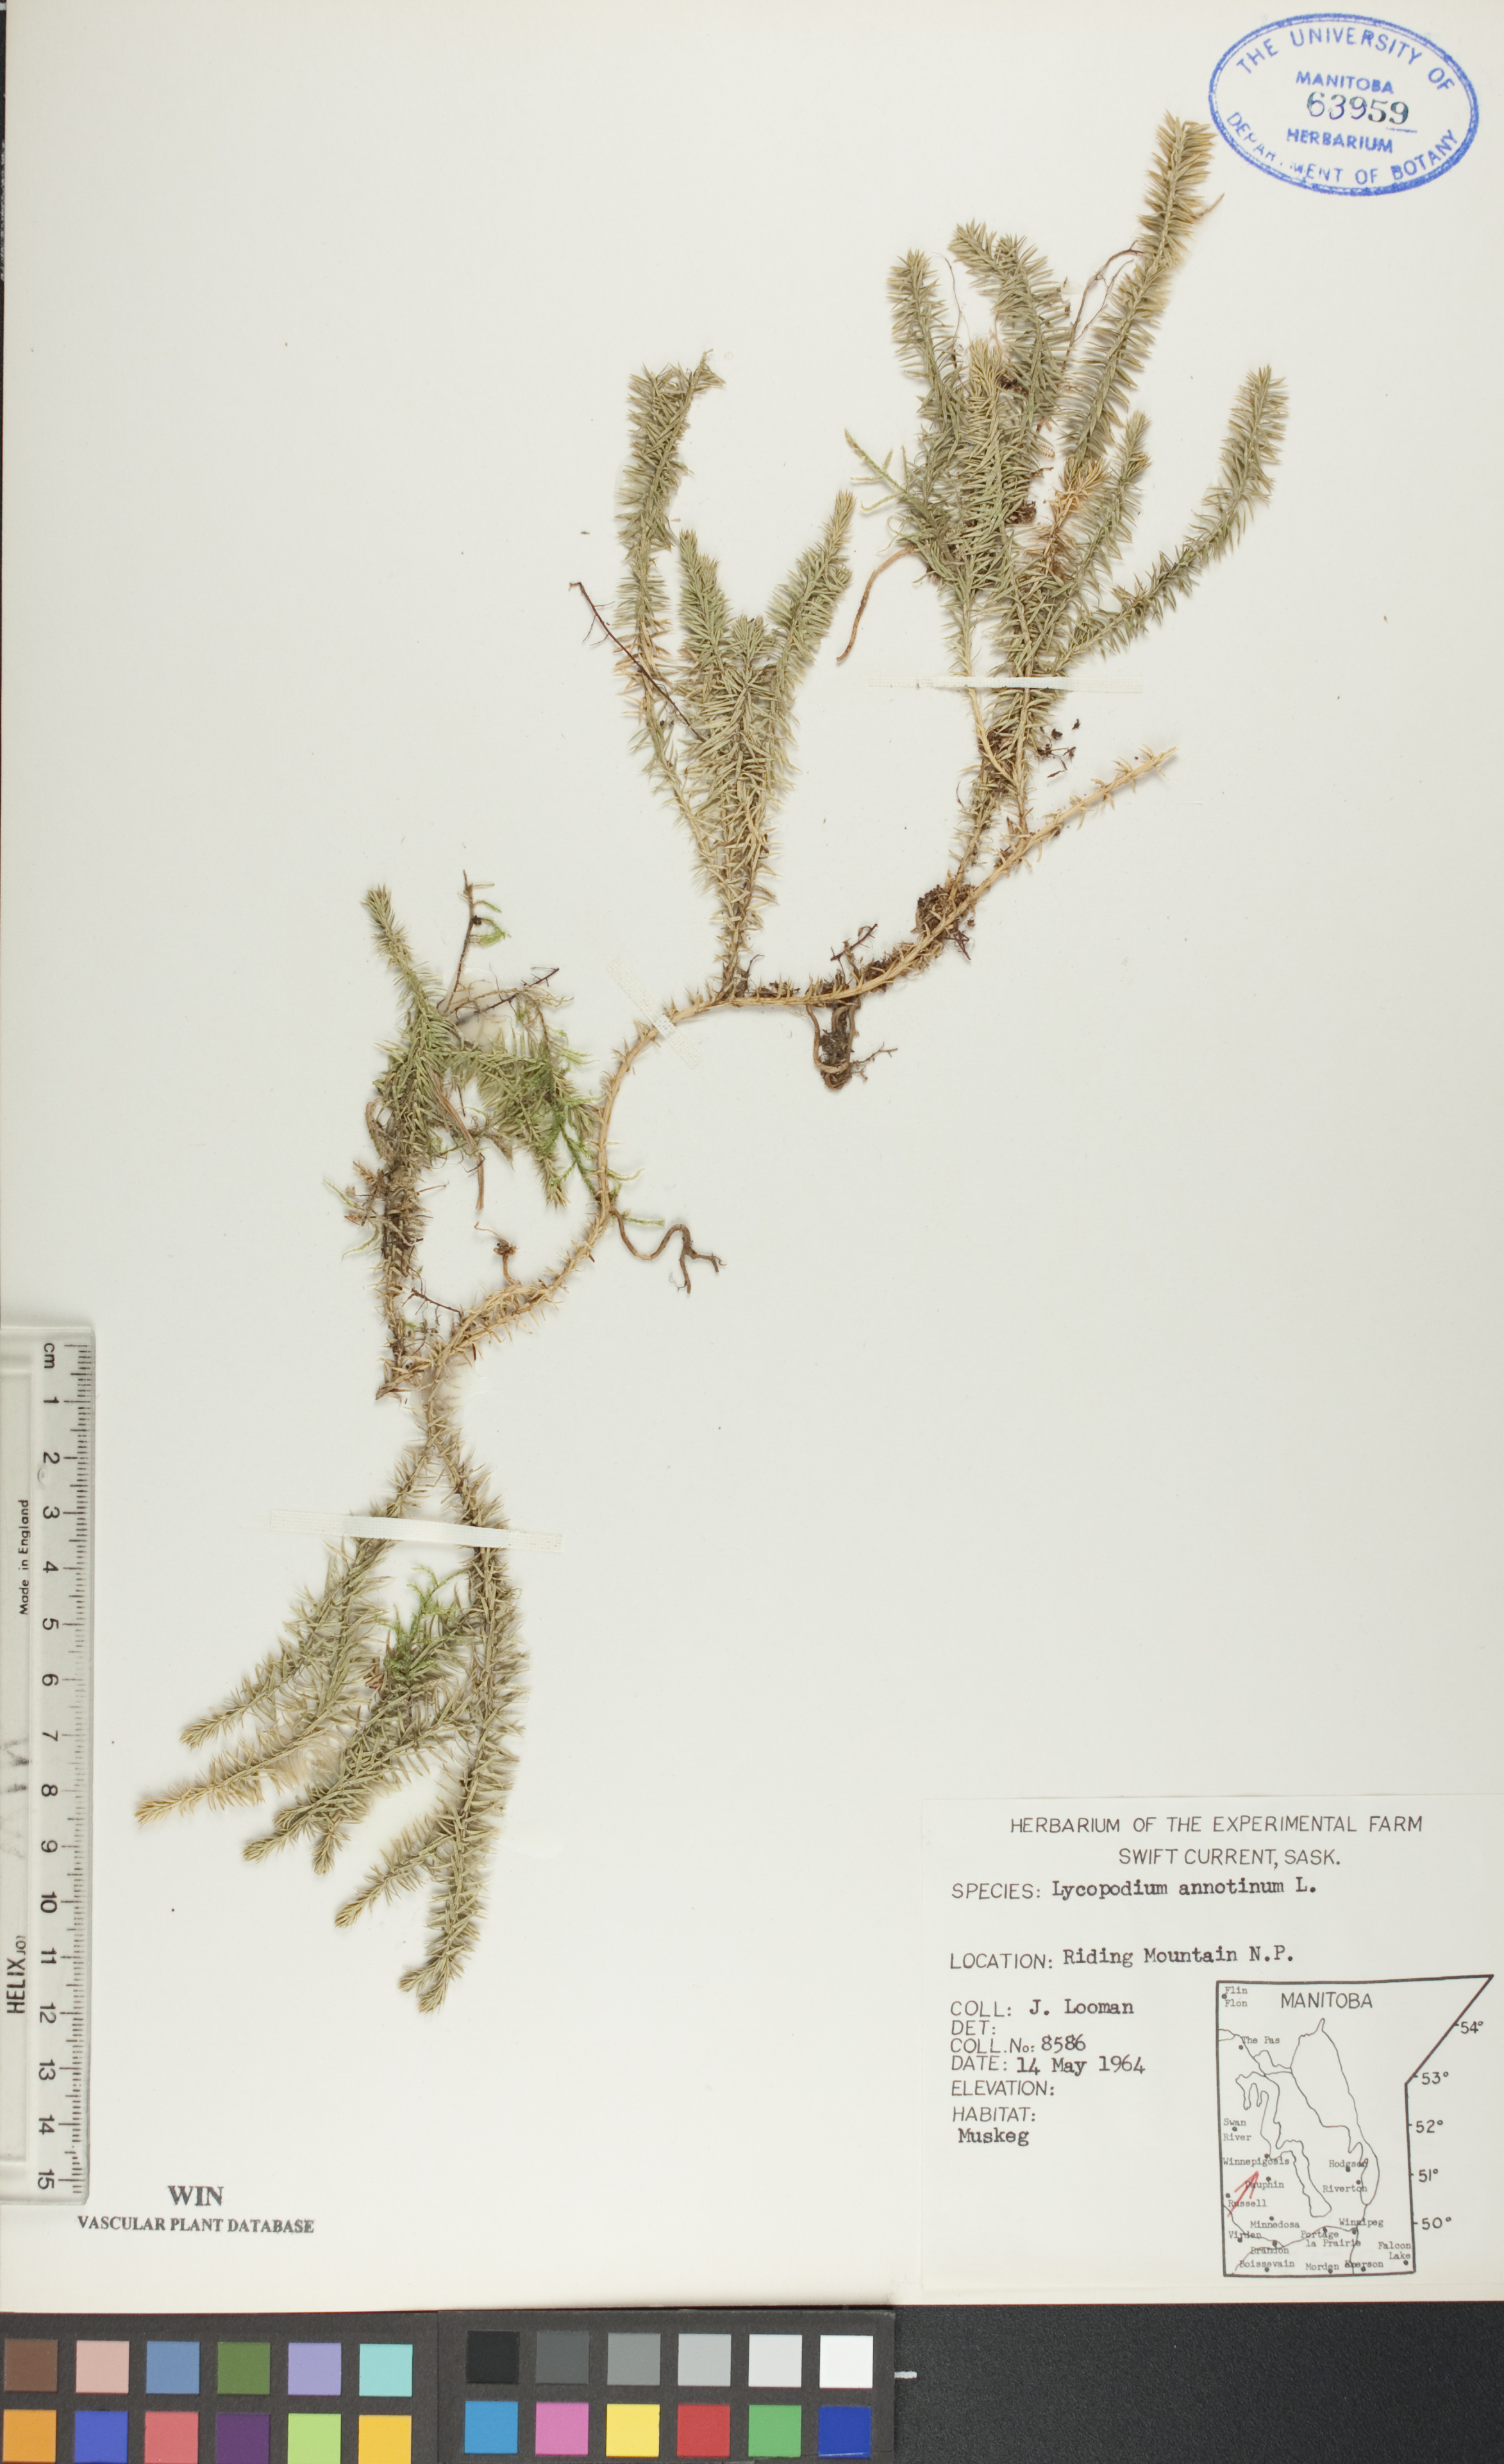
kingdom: Plantae
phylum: Tracheophyta
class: Lycopodiopsida
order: Lycopodiales
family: Lycopodiaceae
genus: Spinulum
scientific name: Spinulum annotinum
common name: Interrupted club-moss
